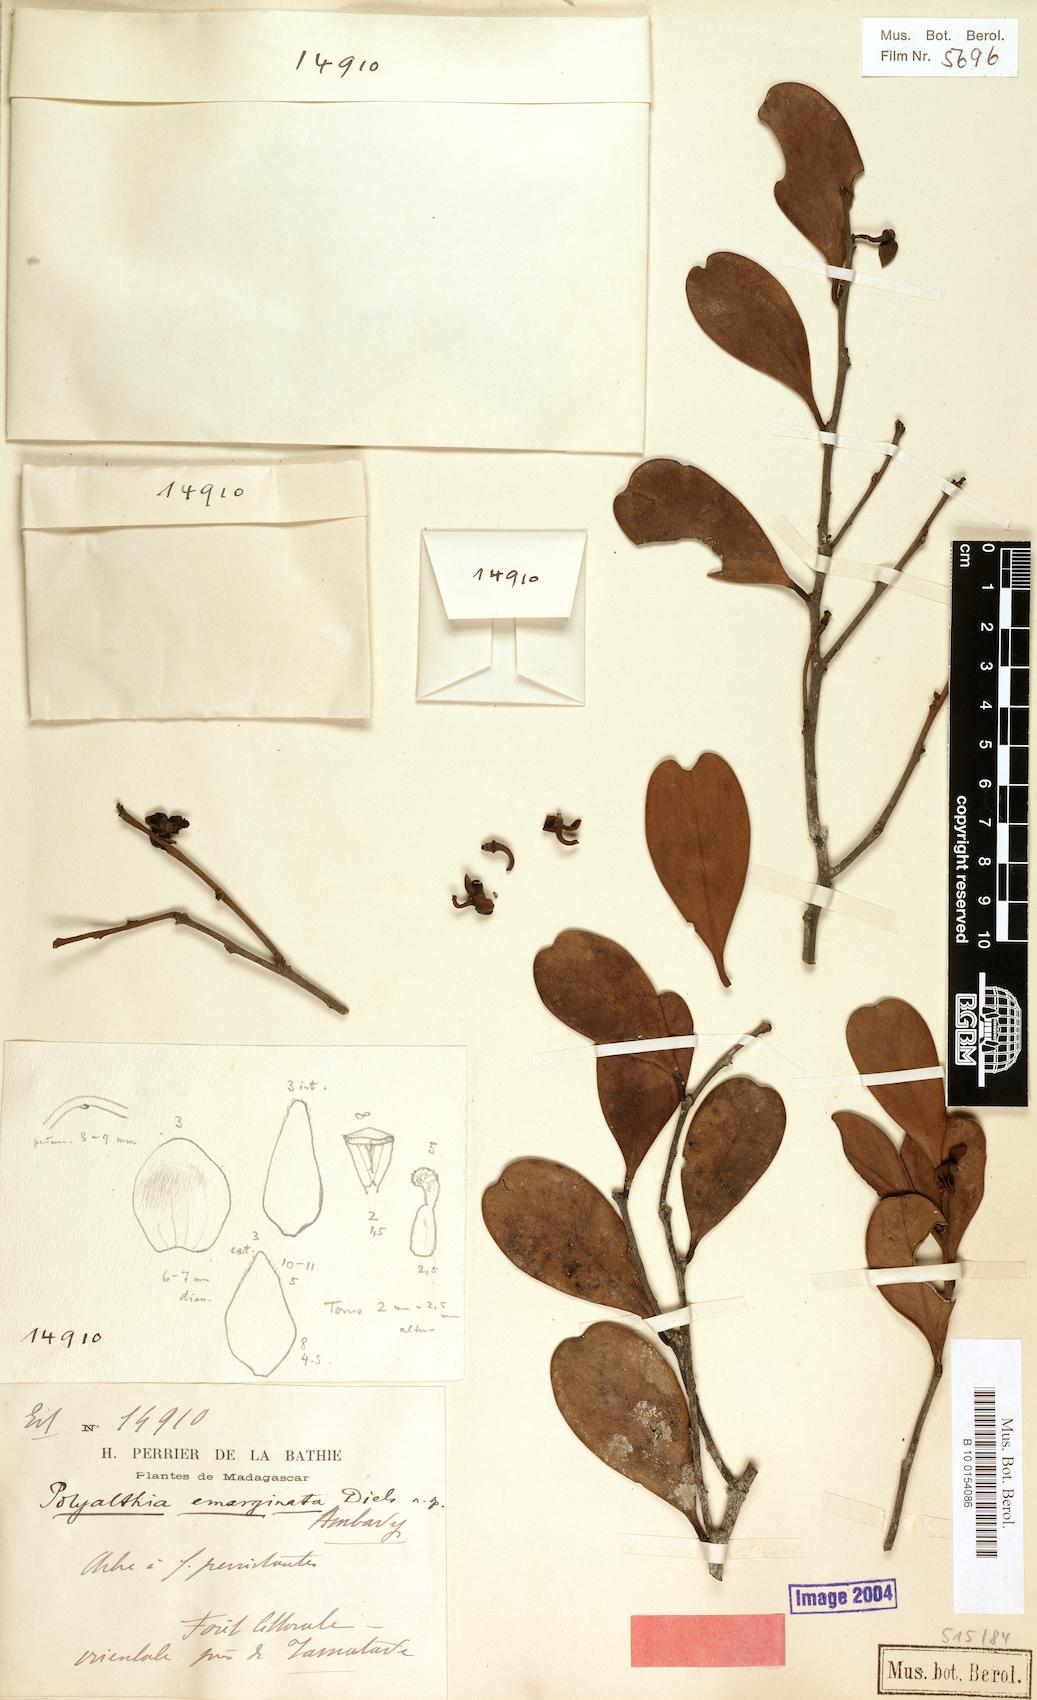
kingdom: Plantae
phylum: Tracheophyta
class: Magnoliopsida
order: Magnoliales
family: Annonaceae
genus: Fenerivia
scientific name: Fenerivia emarginata
